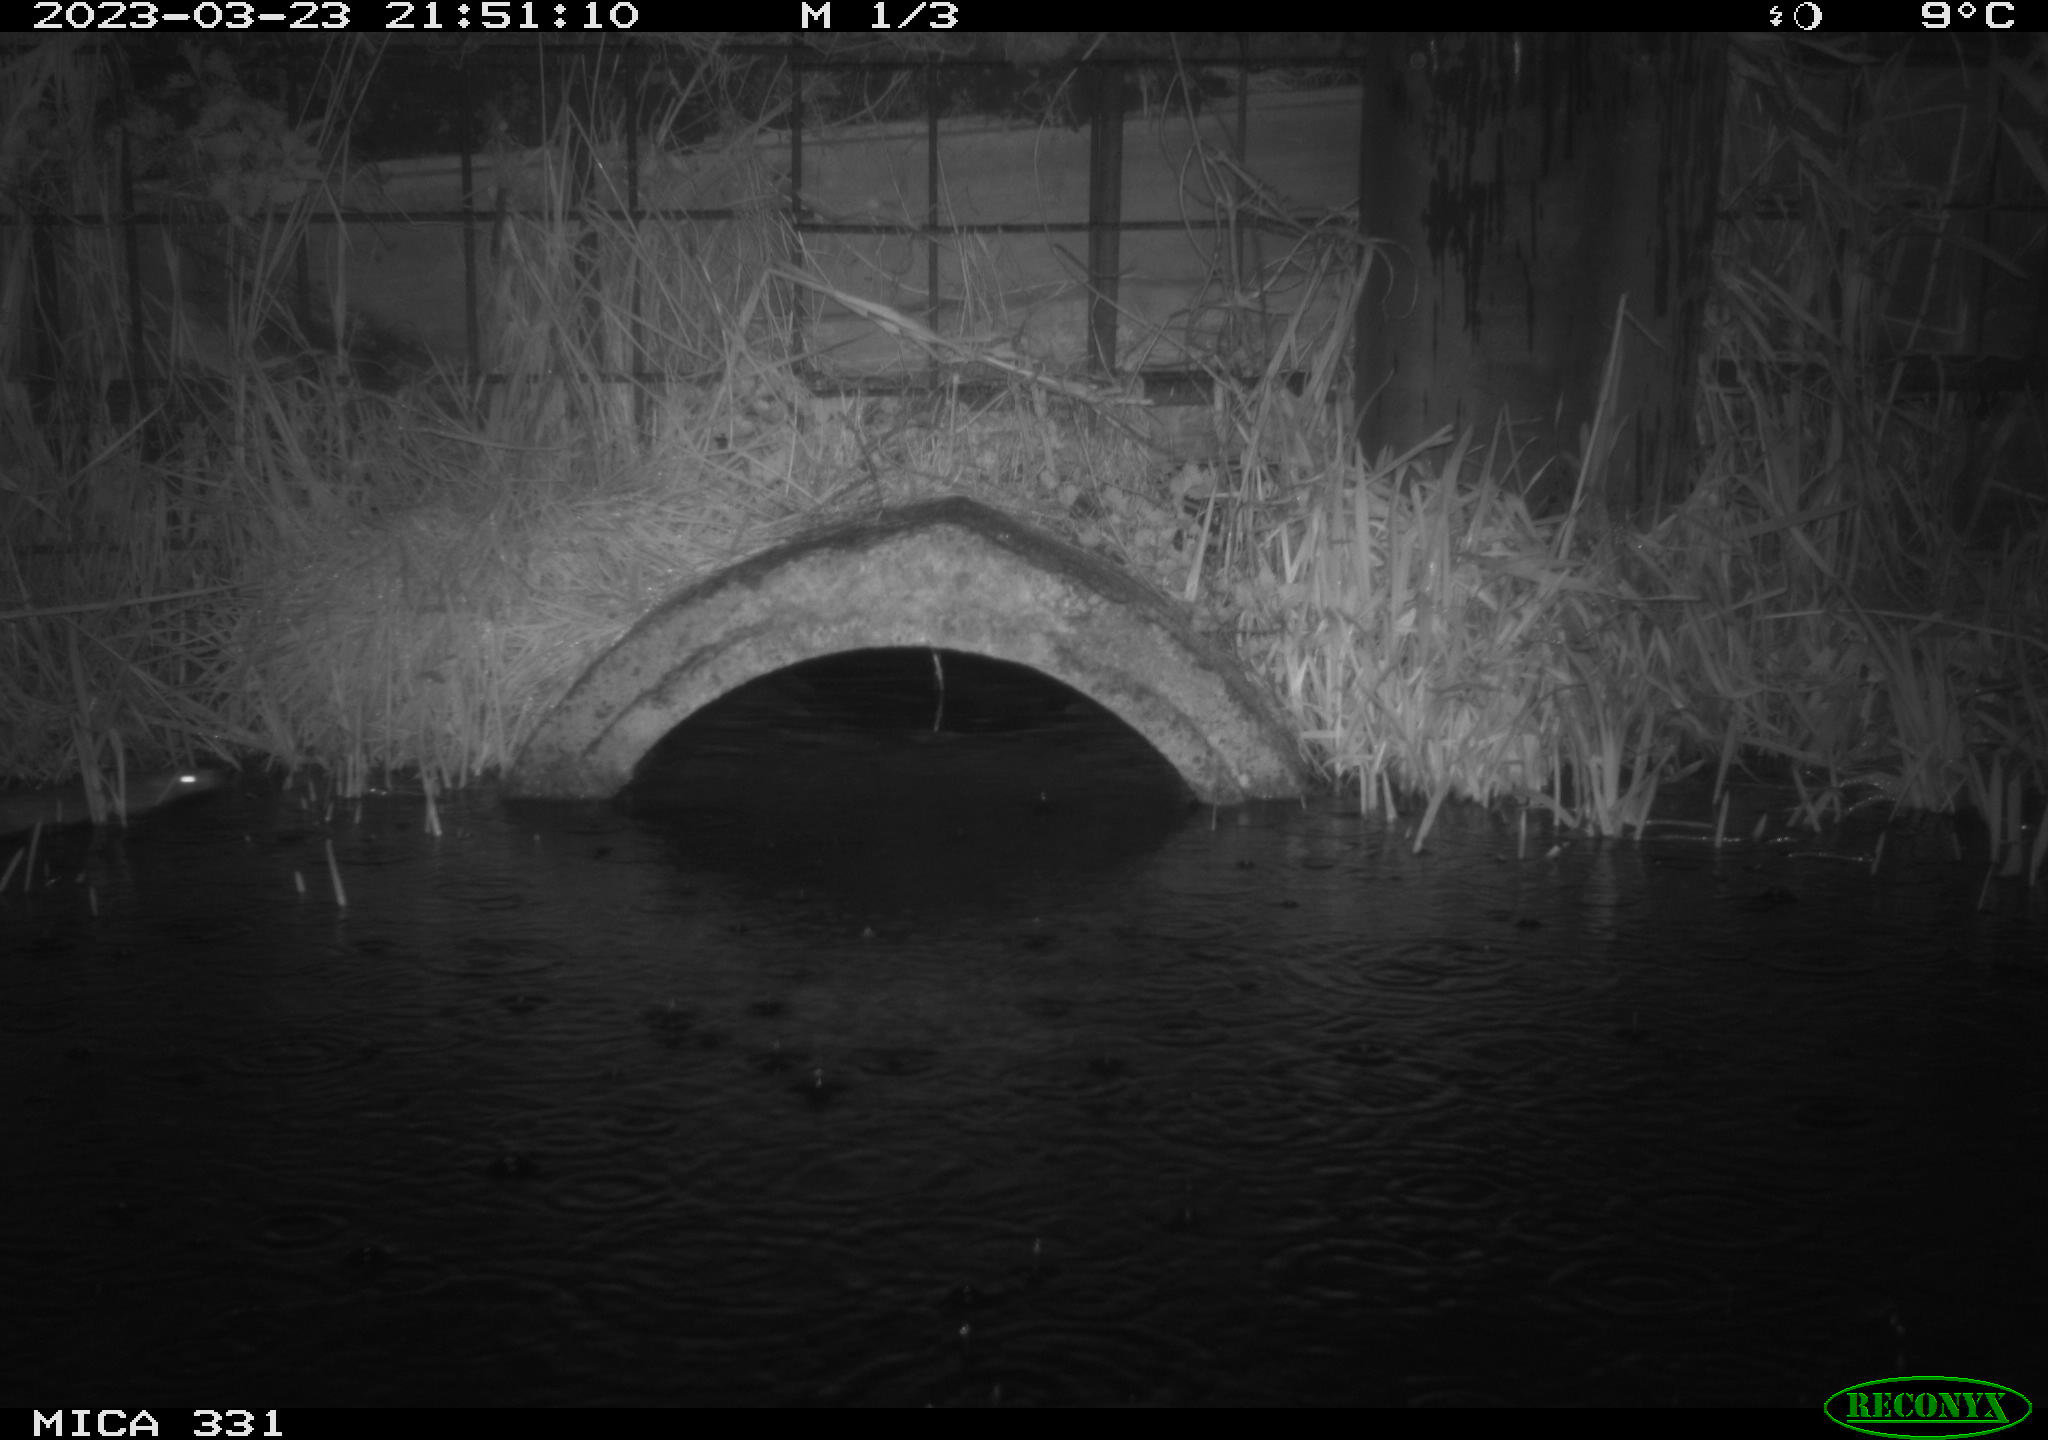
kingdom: Animalia
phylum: Chordata
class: Mammalia
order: Rodentia
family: Muridae
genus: Rattus
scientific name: Rattus norvegicus
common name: Brown rat
